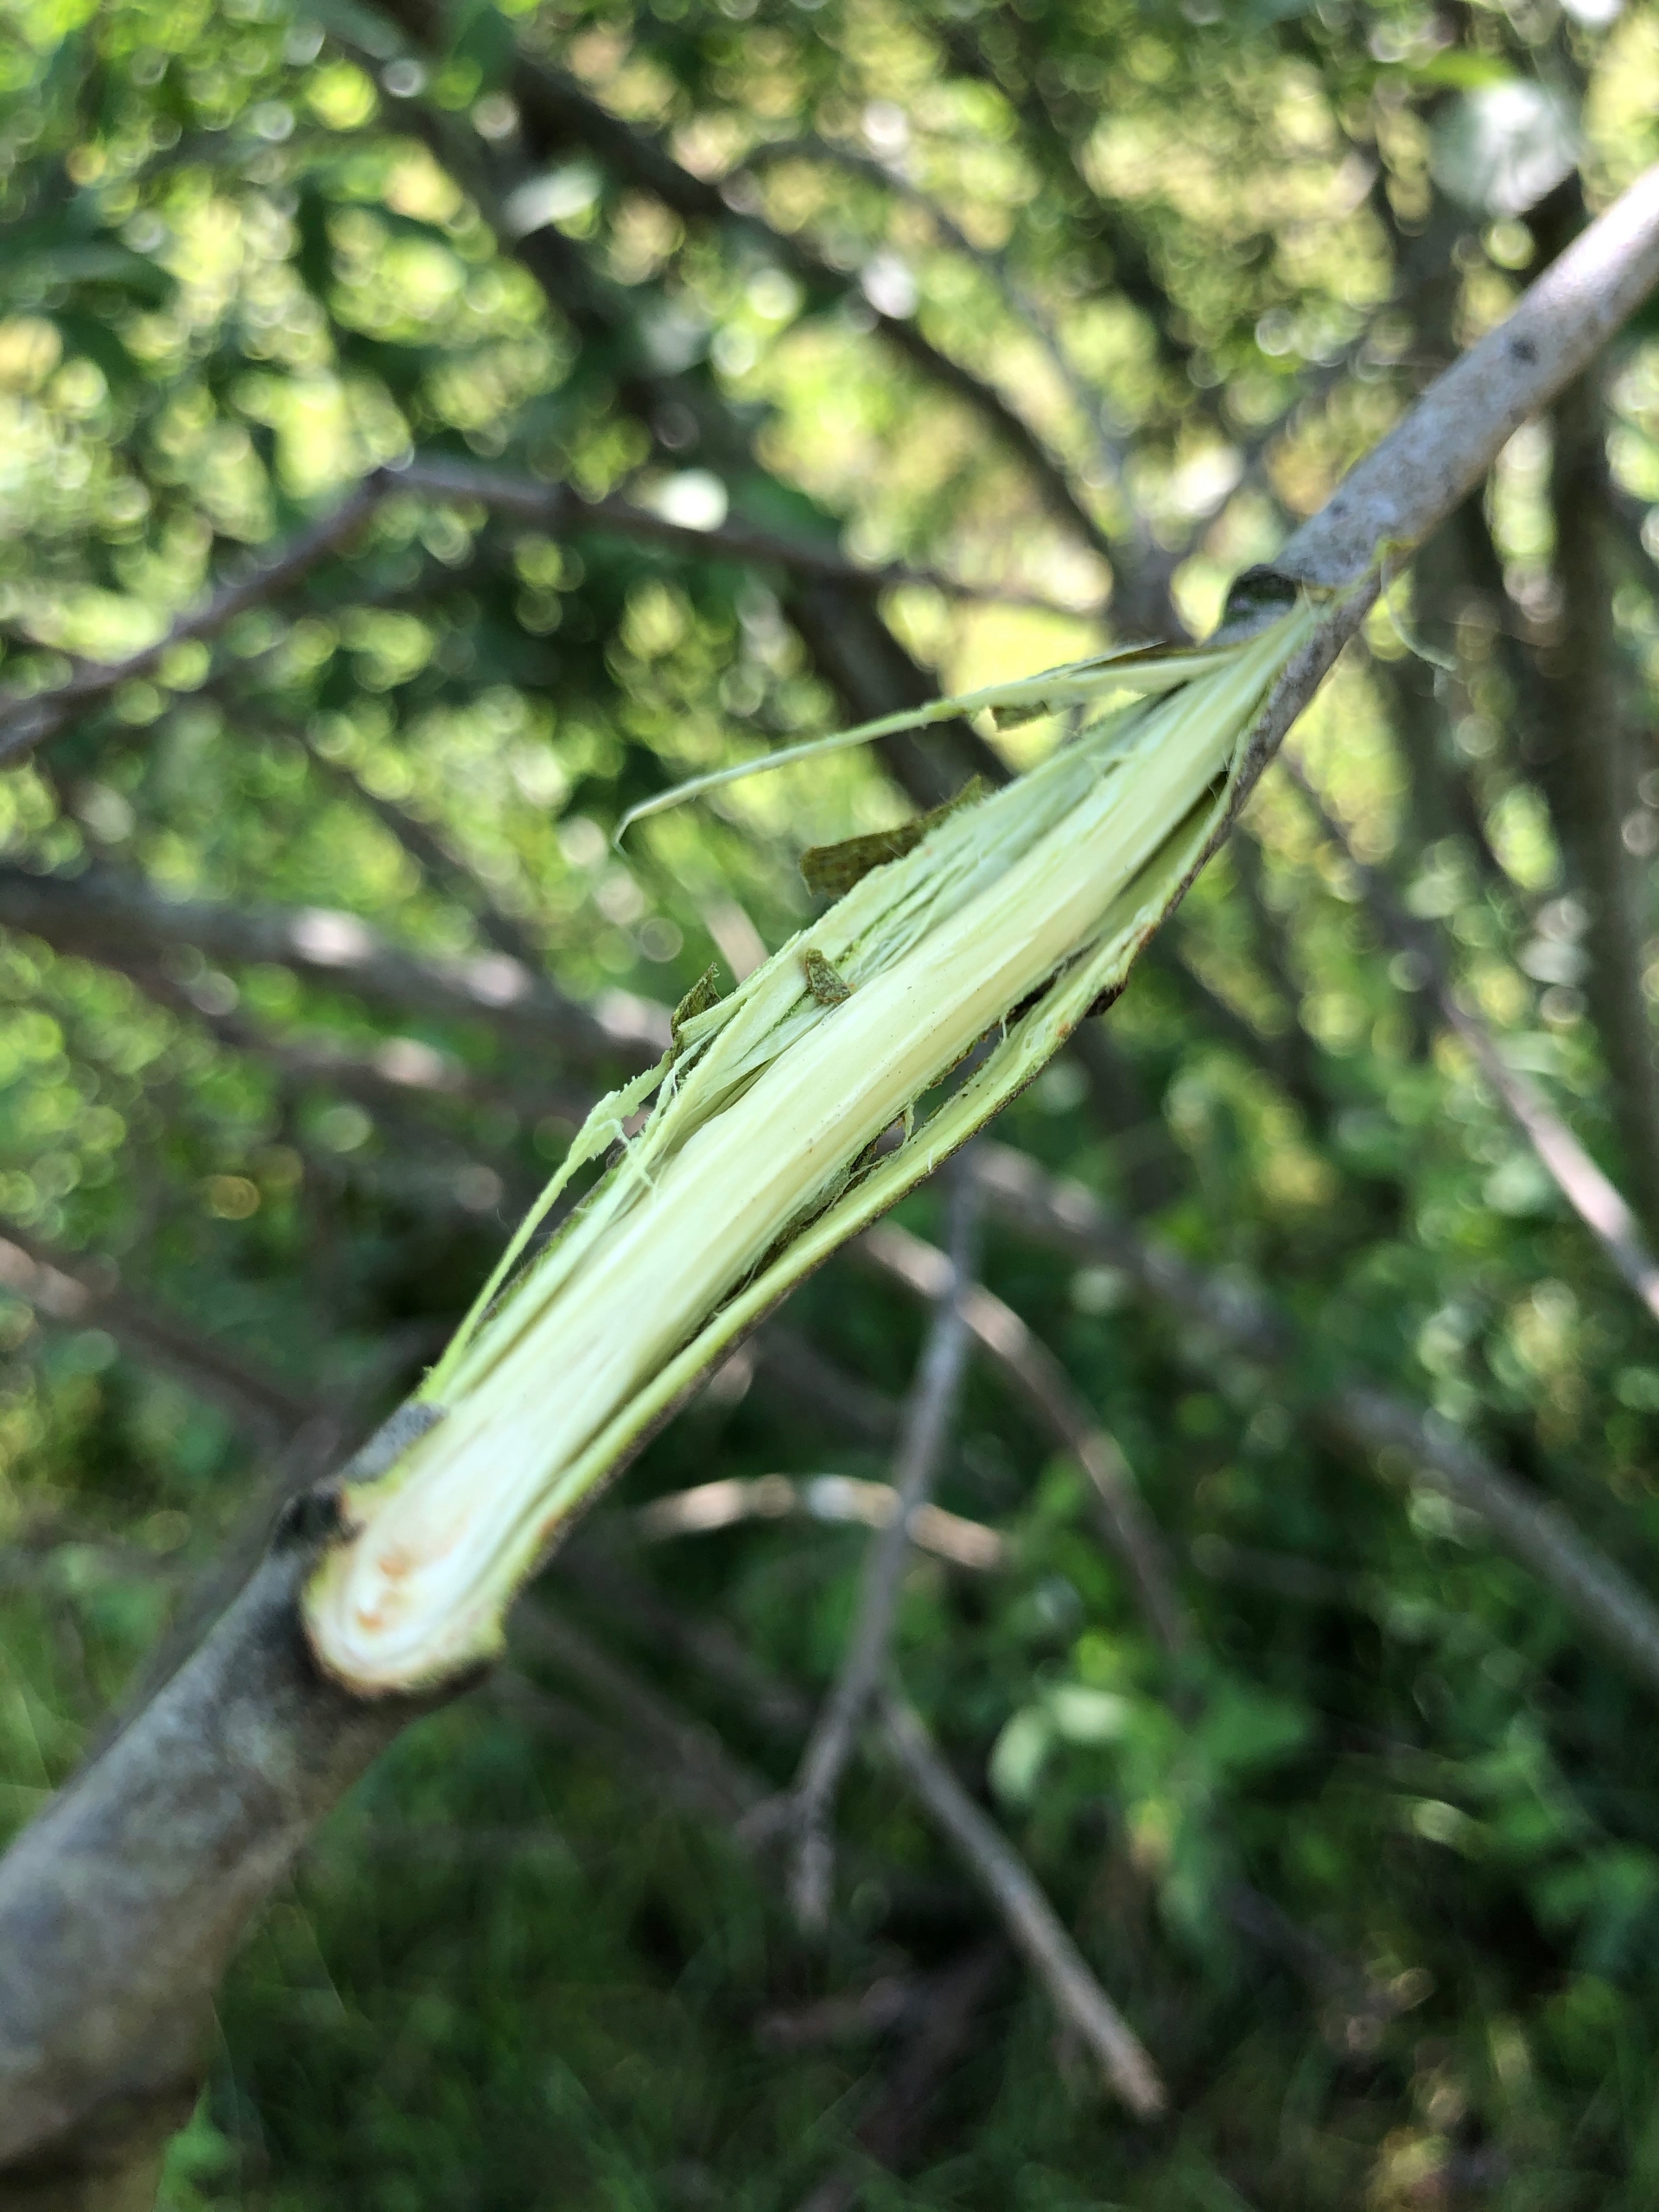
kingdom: Plantae
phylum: Tracheophyta
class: Magnoliopsida
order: Malpighiales
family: Salicaceae
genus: Salix
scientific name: Salix cinerea
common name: Grå-pil
